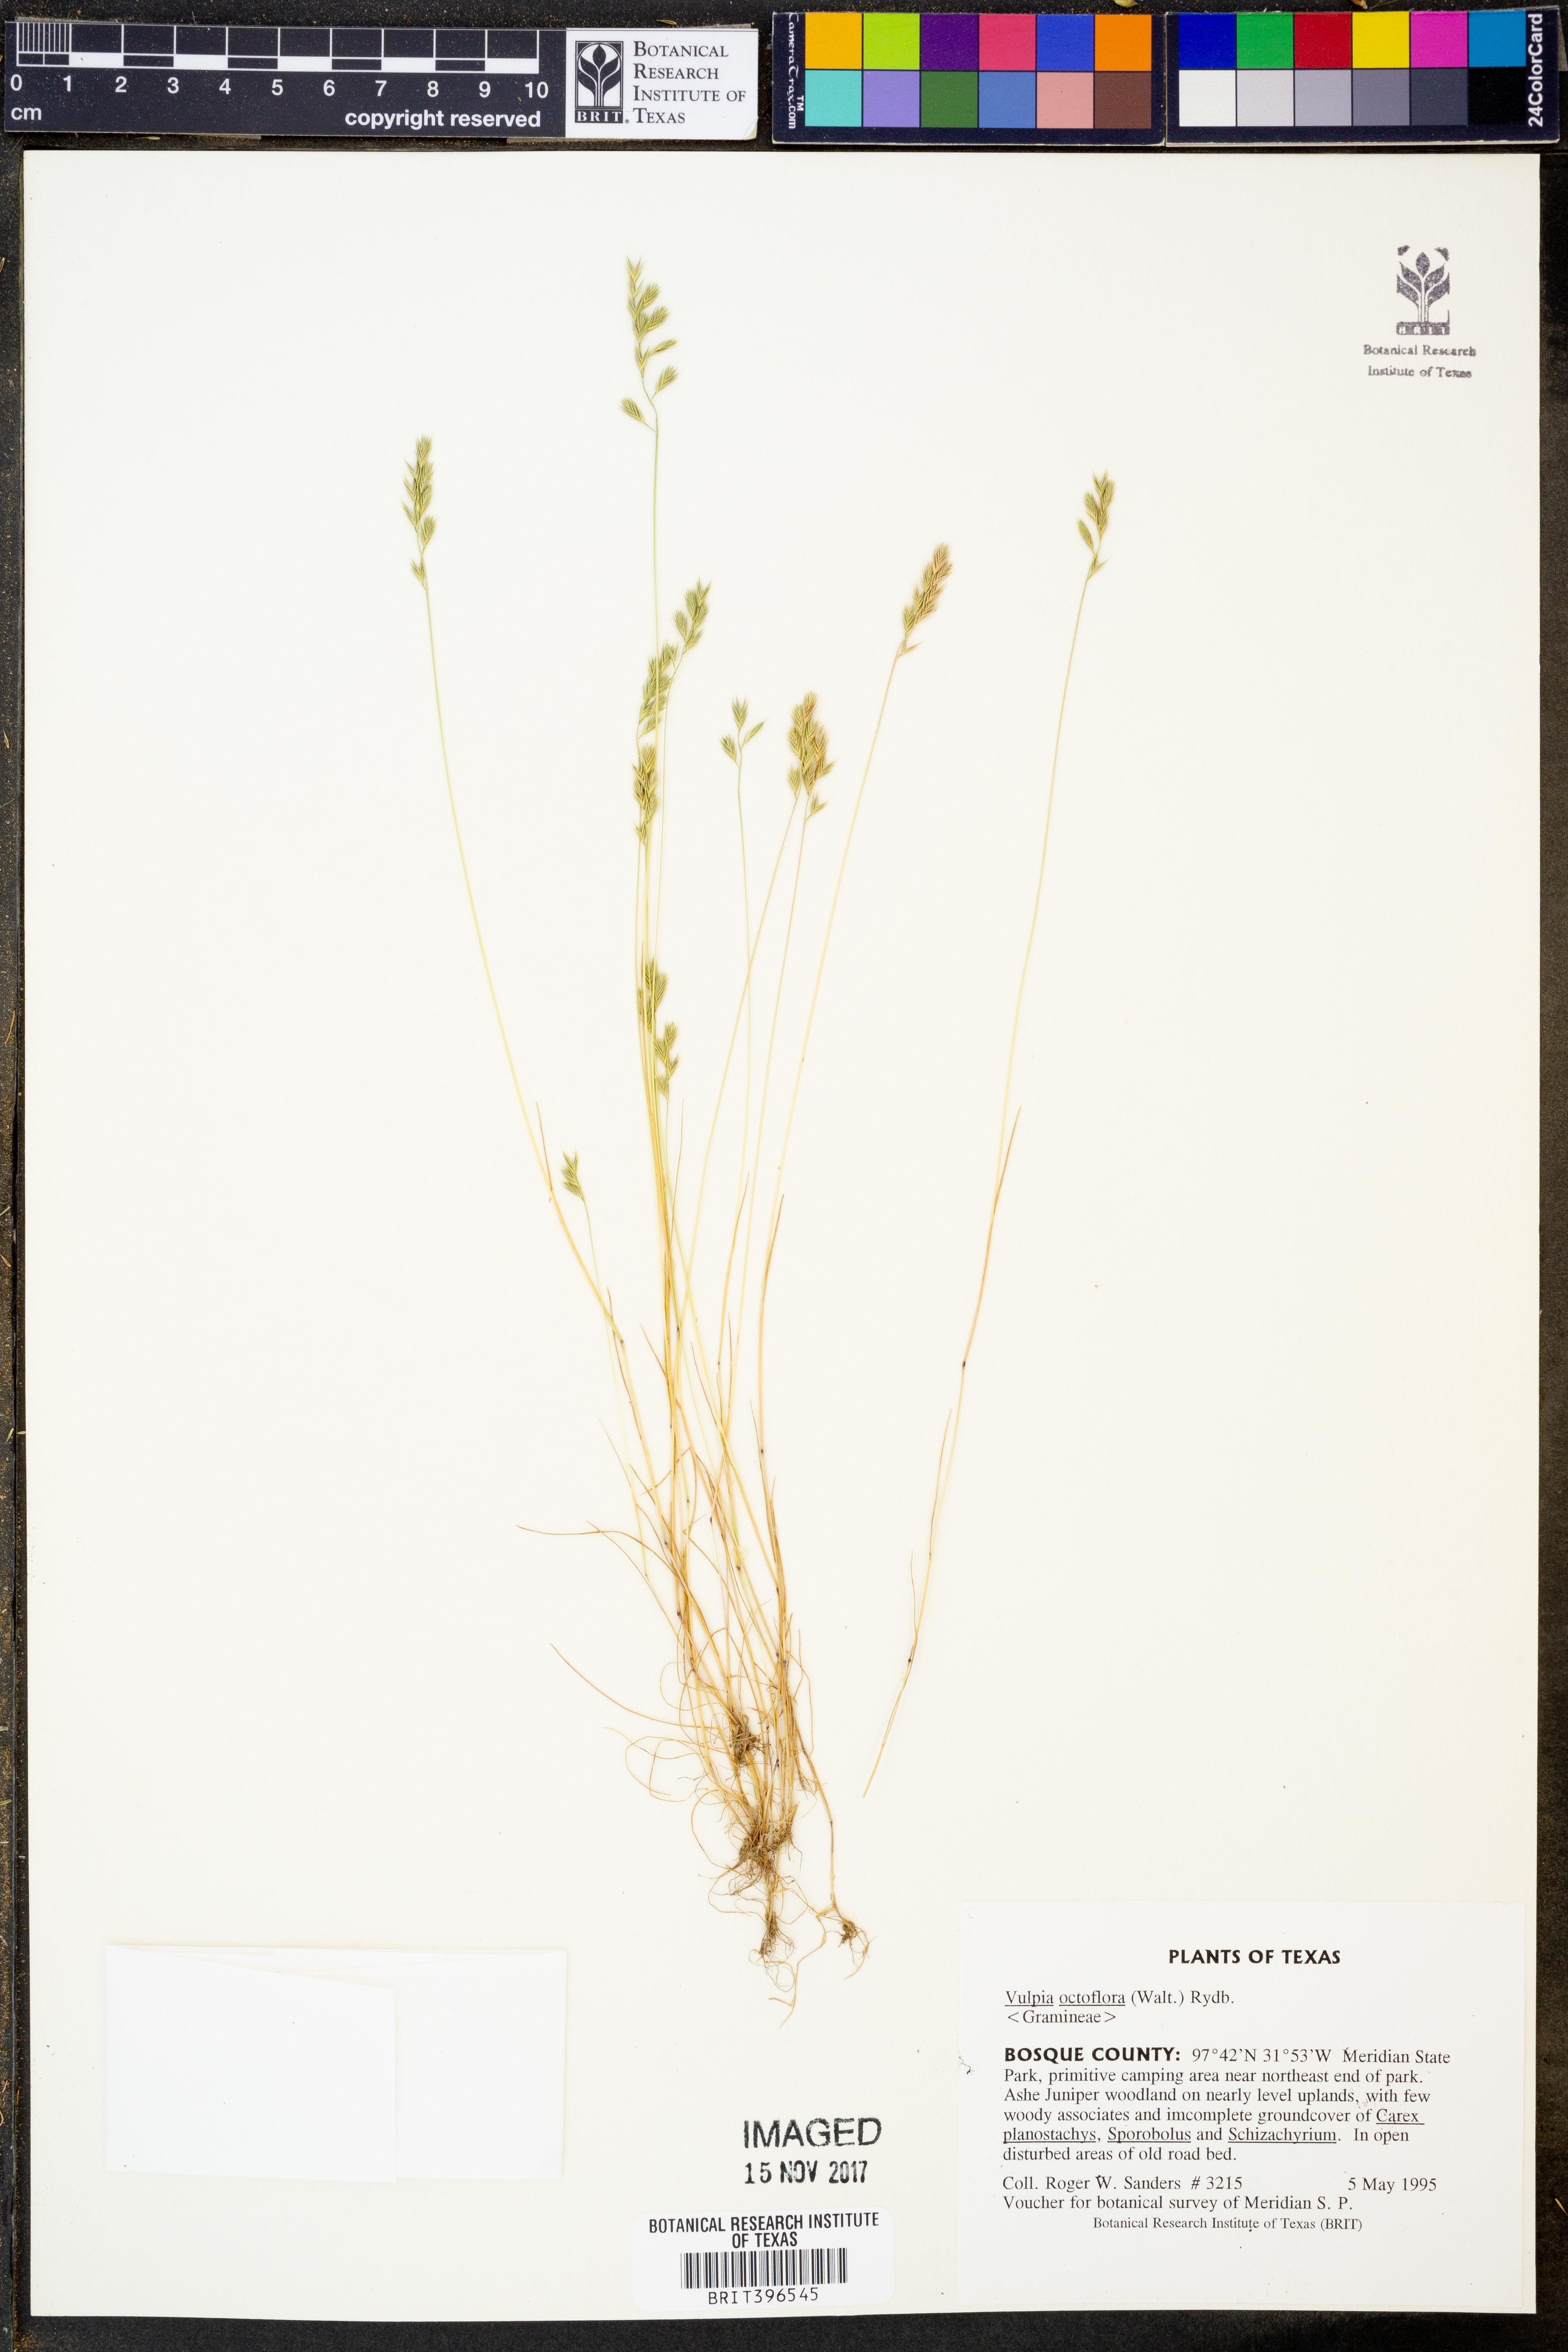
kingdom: Plantae
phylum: Tracheophyta
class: Liliopsida
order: Poales
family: Poaceae
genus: Festuca
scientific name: Festuca octoflora
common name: Sixweeks grass
